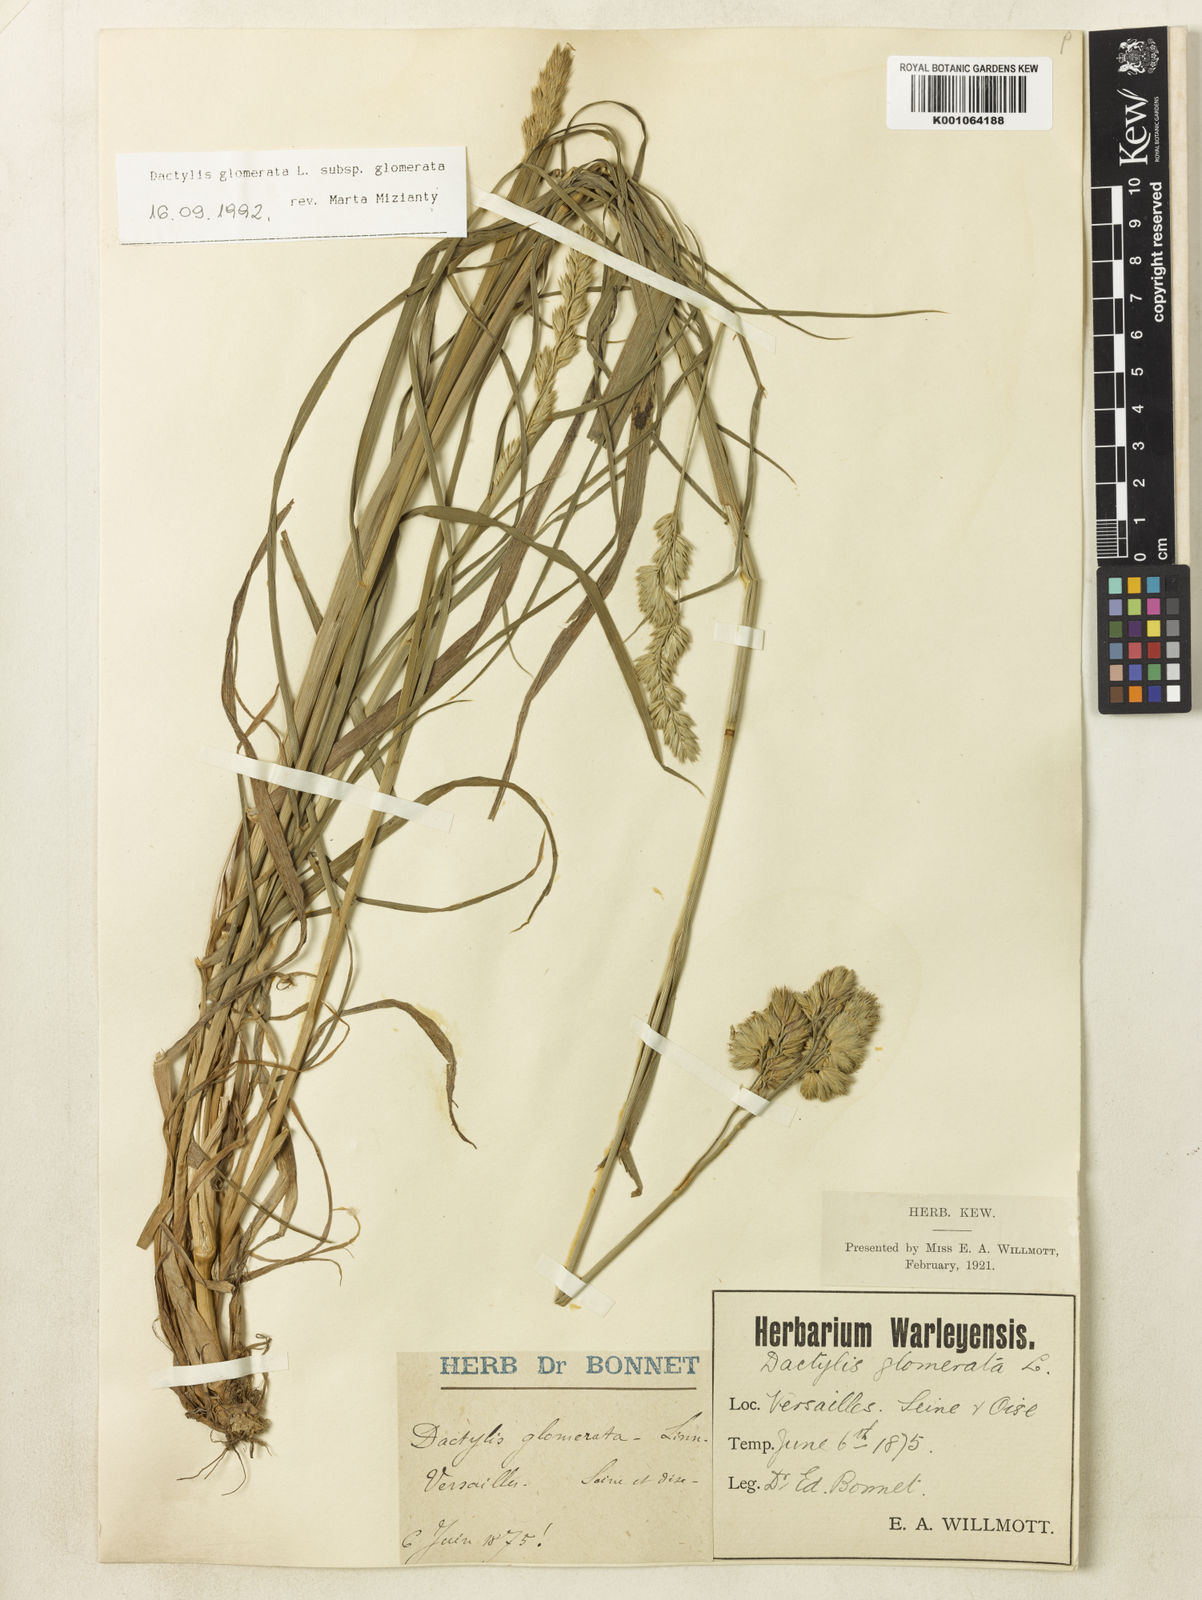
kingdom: Plantae
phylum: Tracheophyta
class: Liliopsida
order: Poales
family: Poaceae
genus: Dactylis
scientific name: Dactylis glomerata
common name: Orchardgrass
